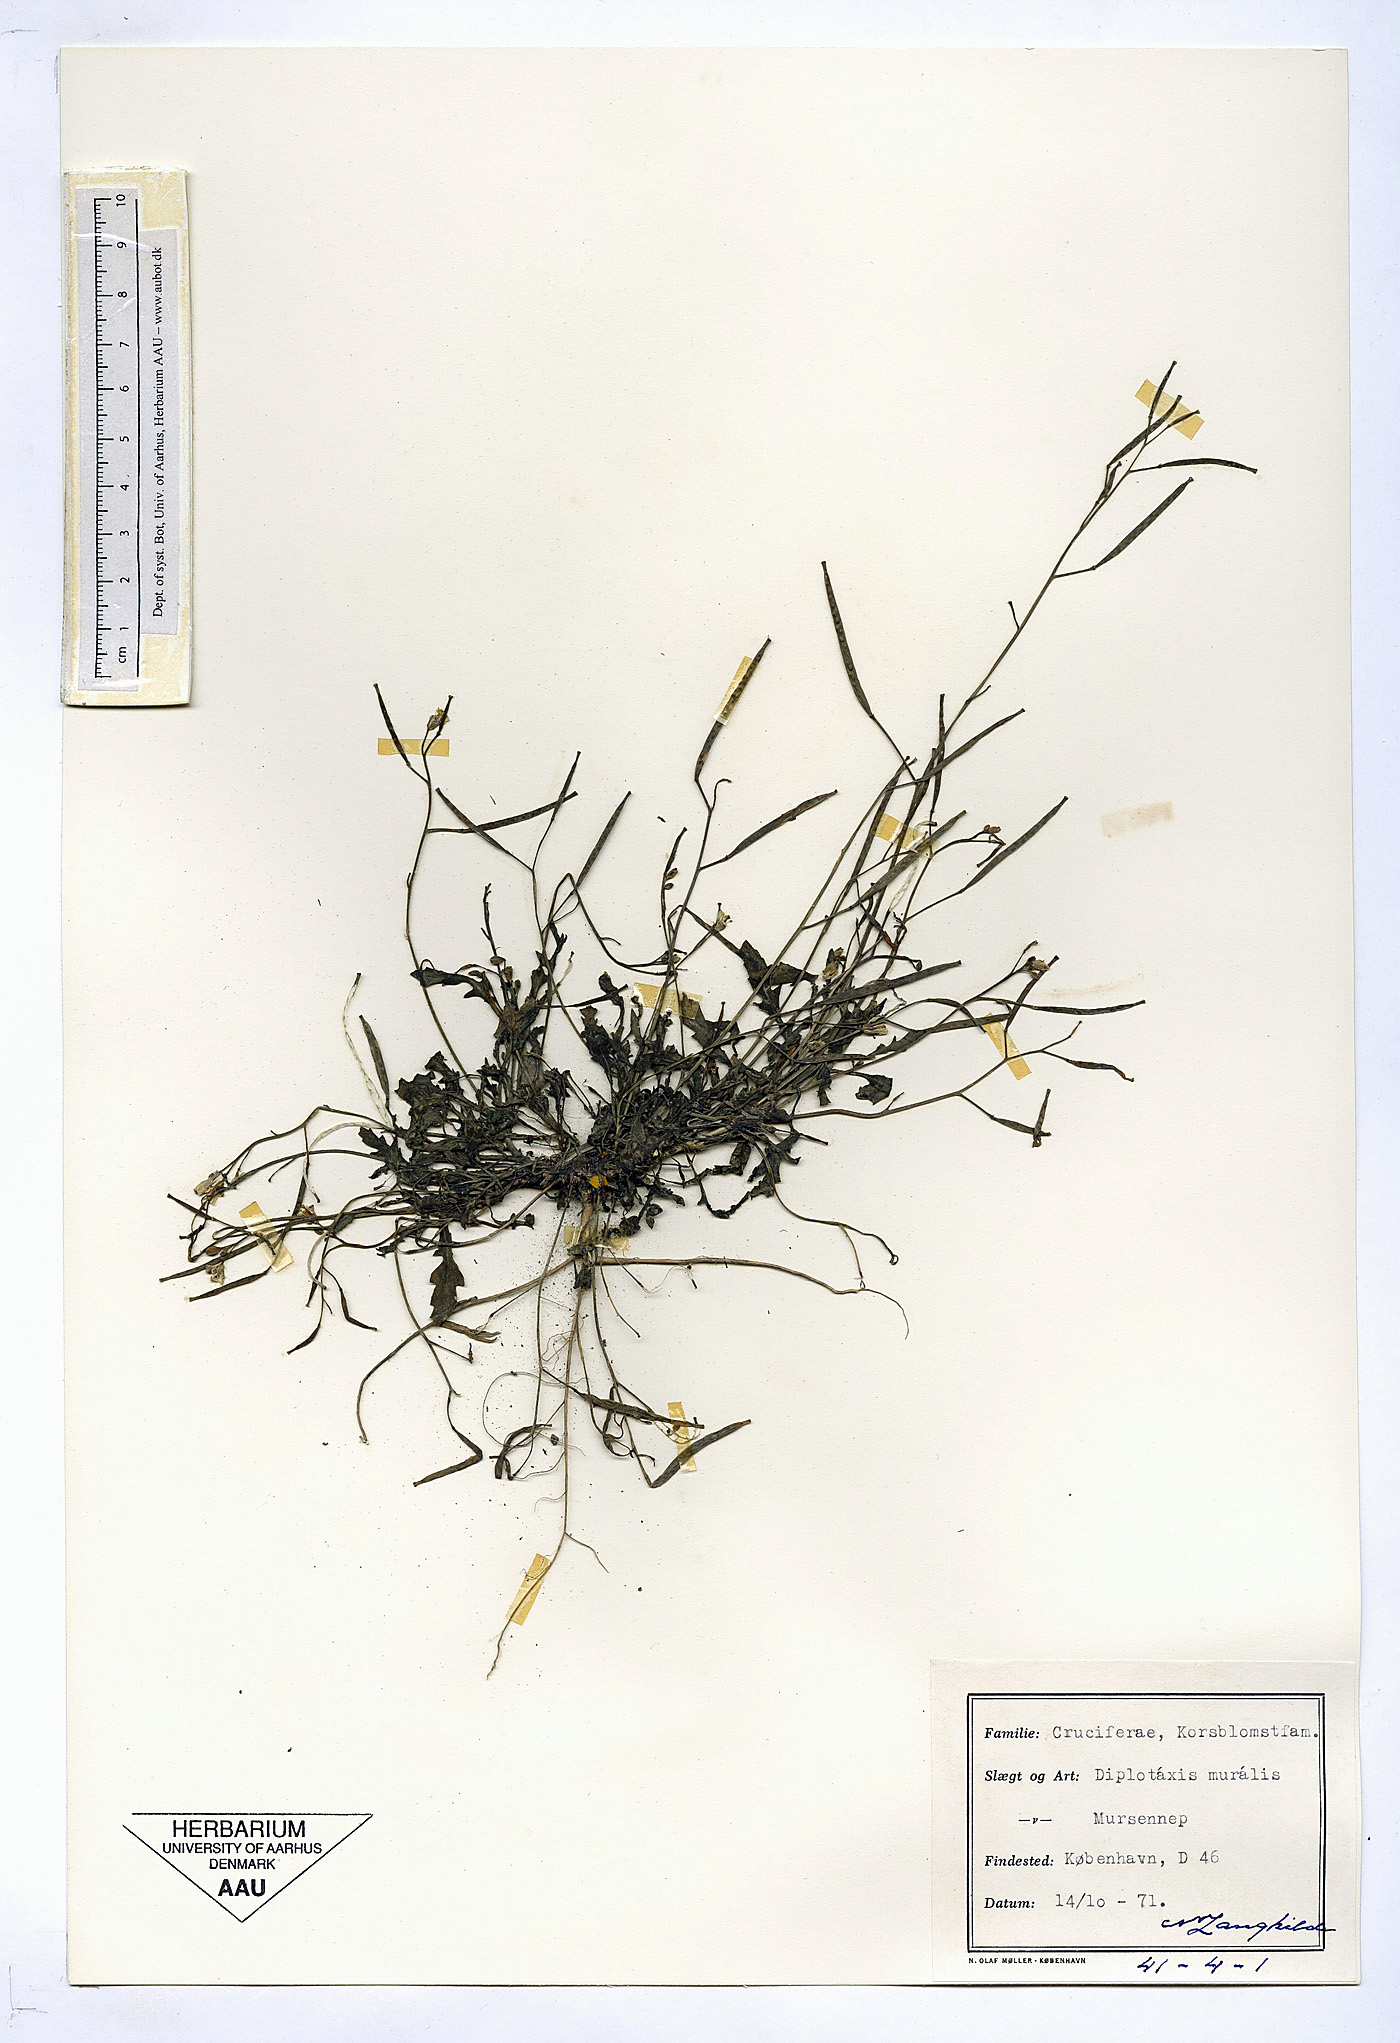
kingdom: Plantae
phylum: Tracheophyta
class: Magnoliopsida
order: Brassicales
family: Brassicaceae
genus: Diplotaxis
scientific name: Diplotaxis muralis
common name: Annual wall-rocket
